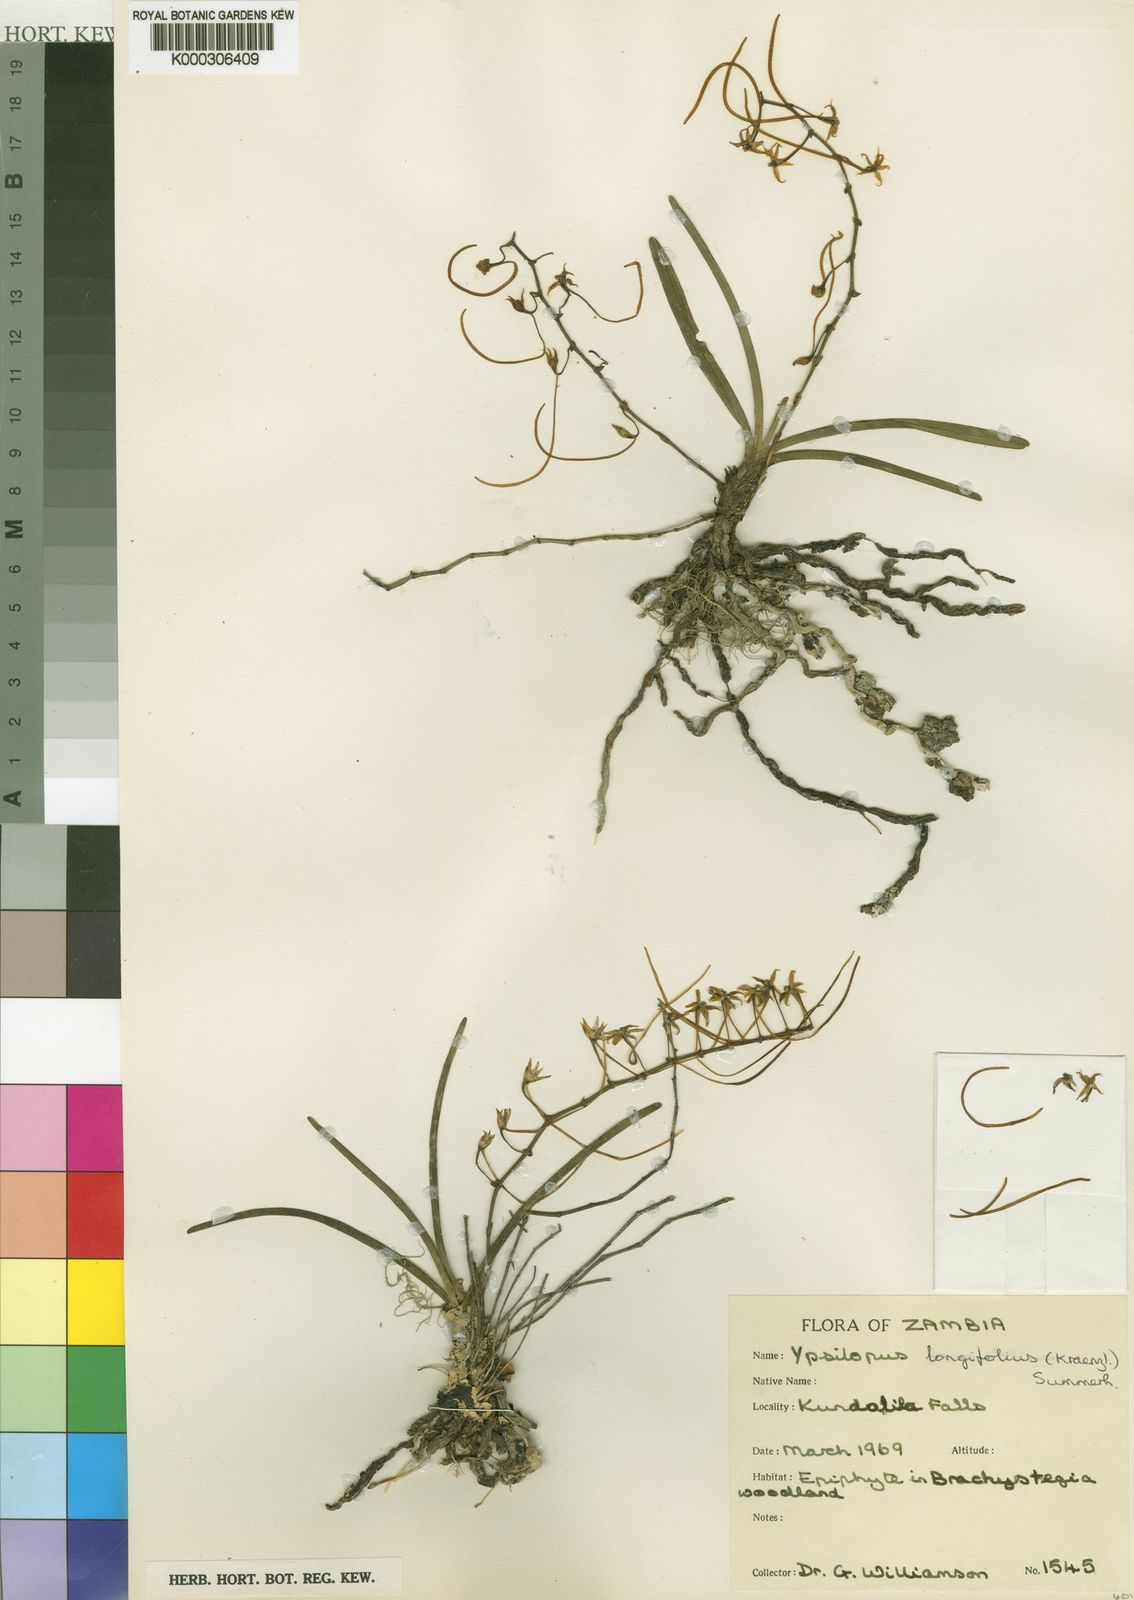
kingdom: Plantae
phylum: Tracheophyta
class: Liliopsida
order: Asparagales
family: Orchidaceae
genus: Ypsilopus
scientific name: Ypsilopus erectus
